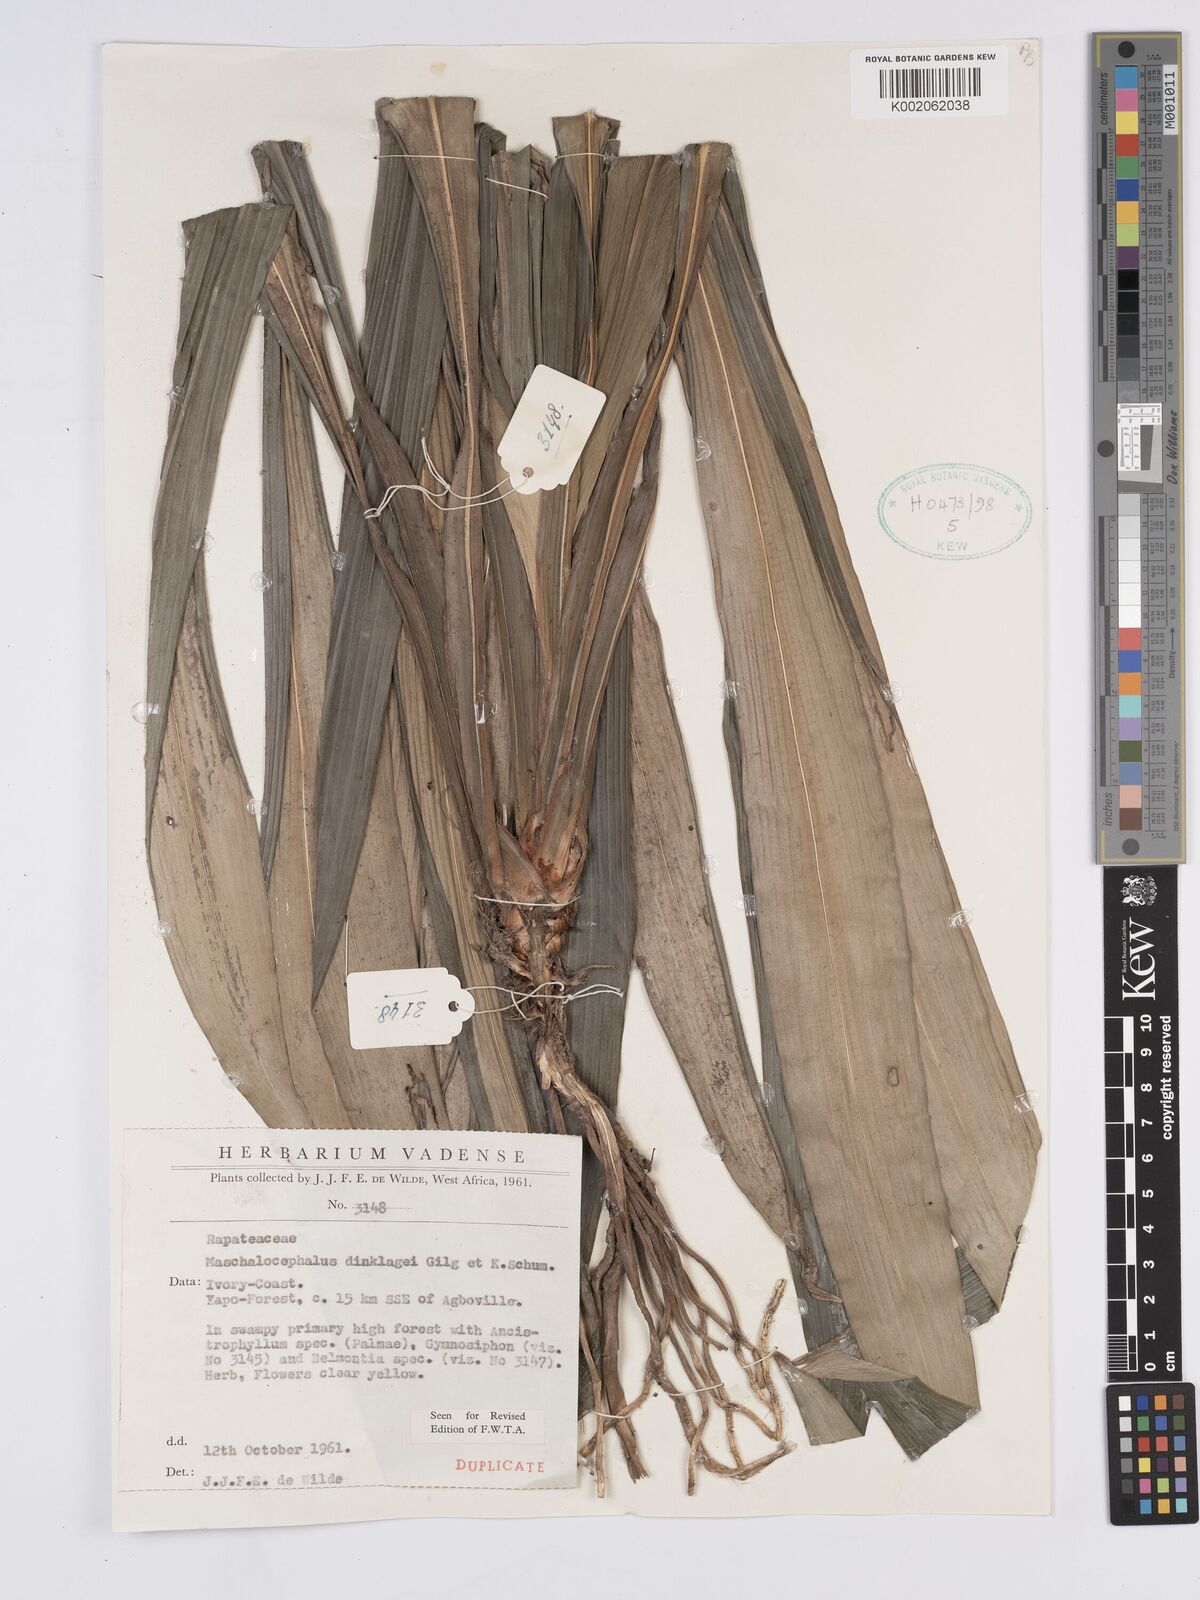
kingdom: Plantae
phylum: Tracheophyta
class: Liliopsida
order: Poales
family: Rapateaceae
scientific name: Rapateaceae
